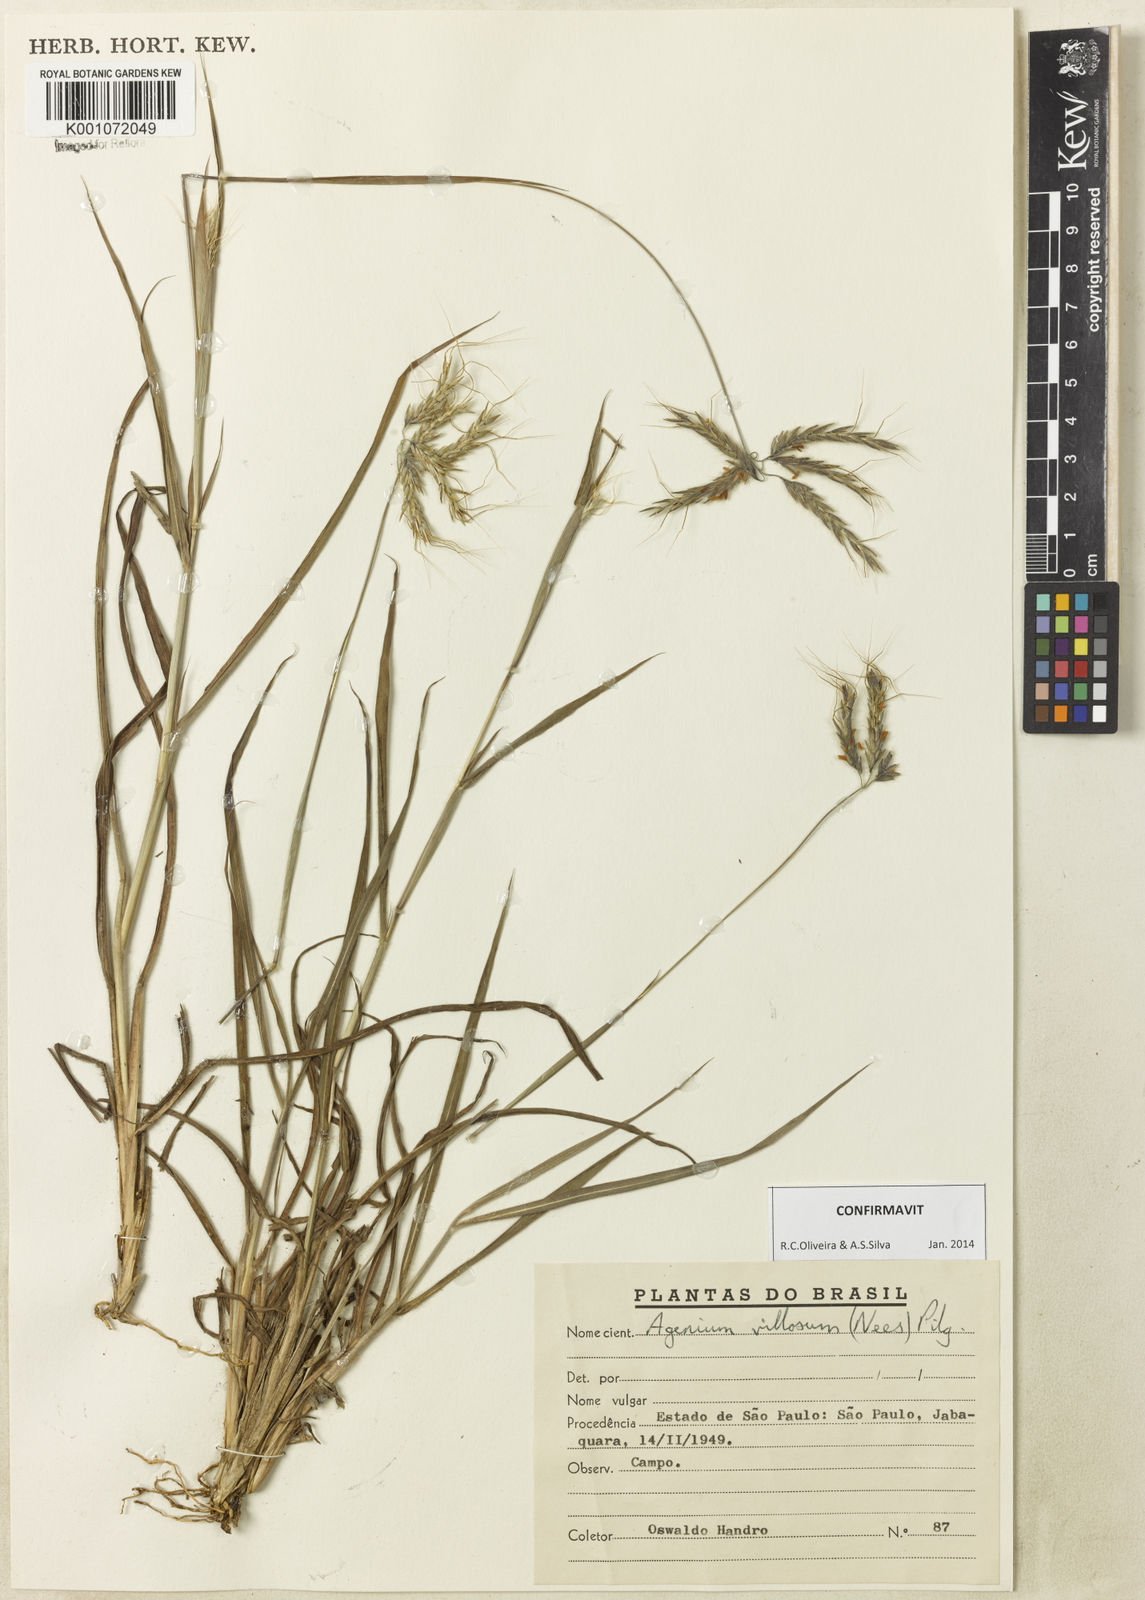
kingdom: Plantae
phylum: Tracheophyta
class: Liliopsida
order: Poales
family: Poaceae
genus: Agenium
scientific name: Agenium villosum
